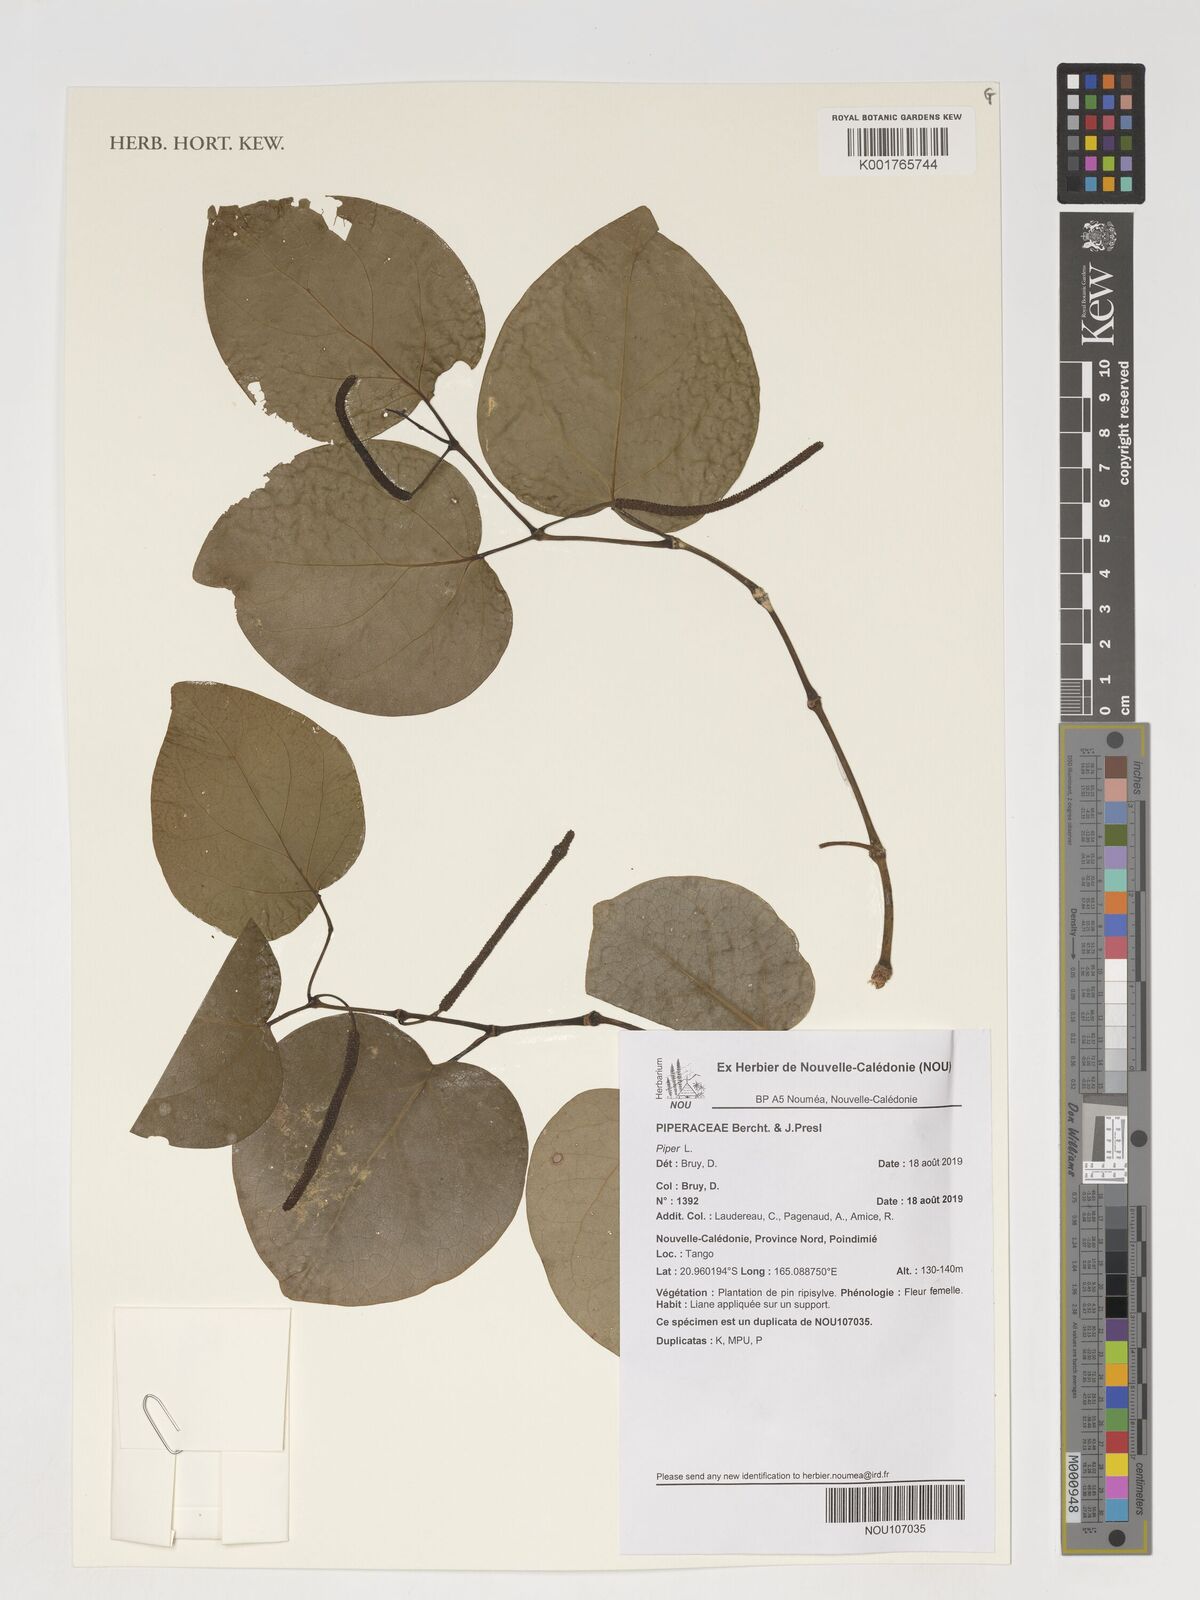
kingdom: Plantae
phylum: Tracheophyta
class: Magnoliopsida
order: Piperales
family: Piperaceae
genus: Piper
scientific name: Piper
